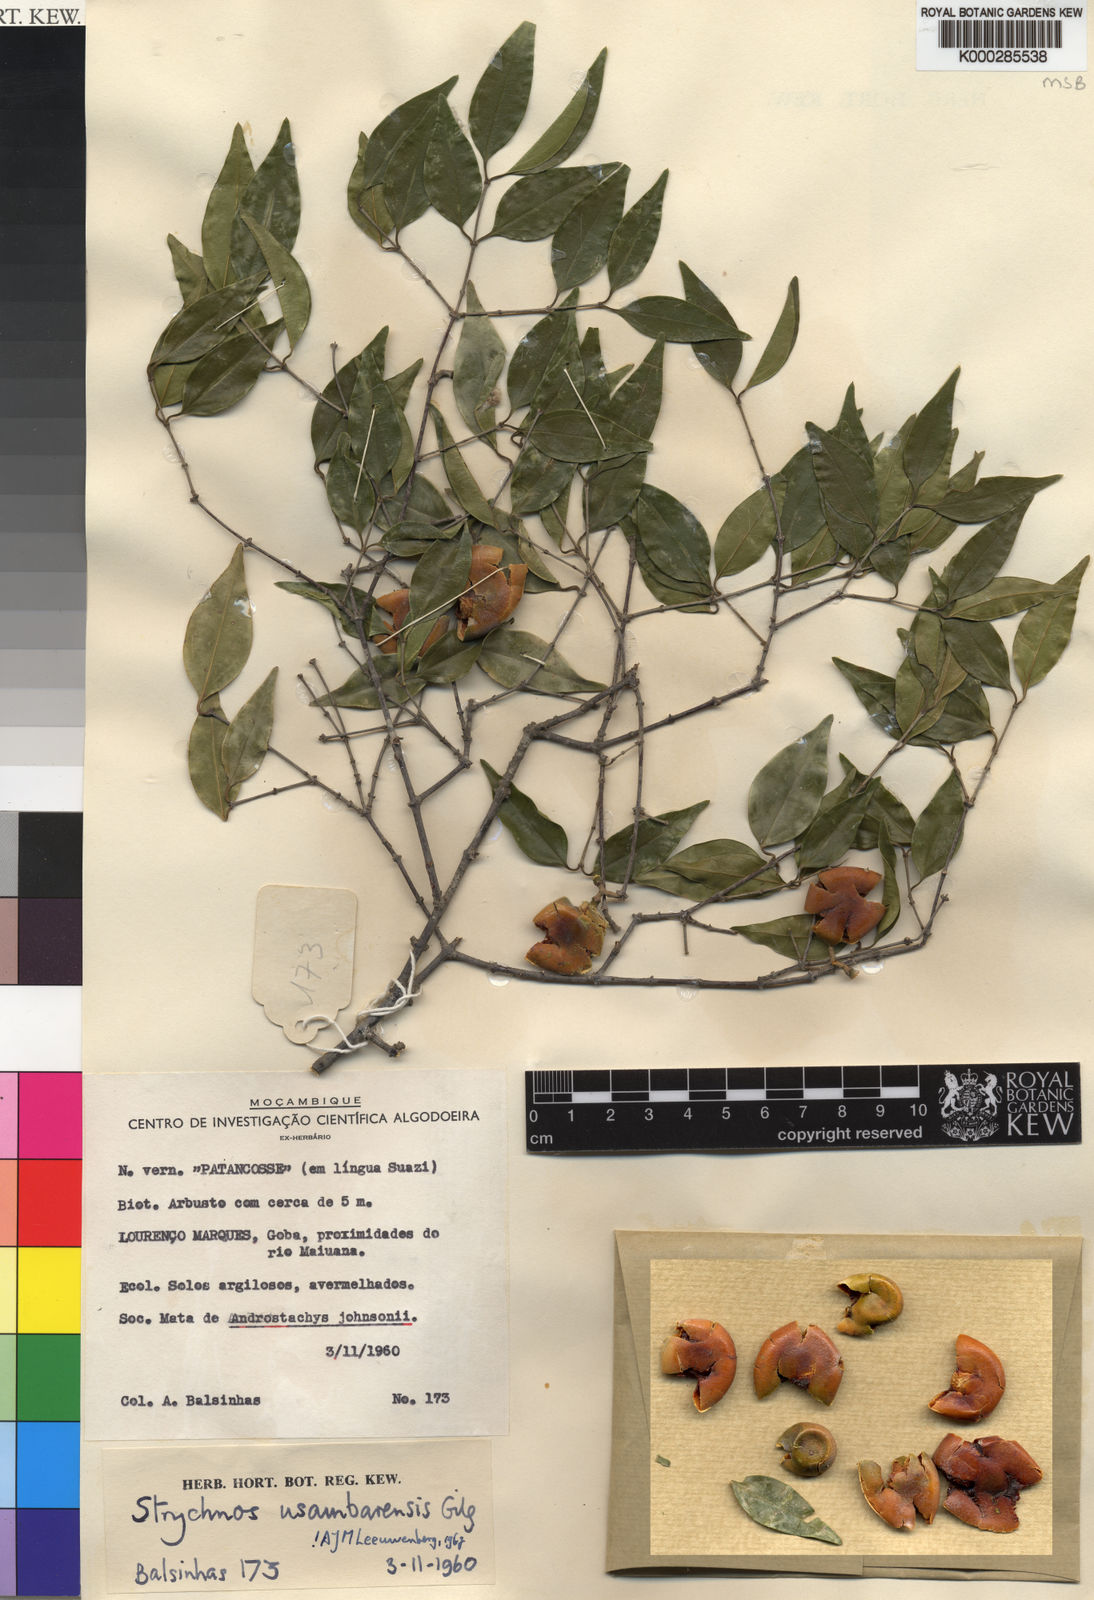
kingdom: Plantae
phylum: Tracheophyta
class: Magnoliopsida
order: Gentianales
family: Loganiaceae
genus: Strychnos
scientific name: Strychnos usambarensis
